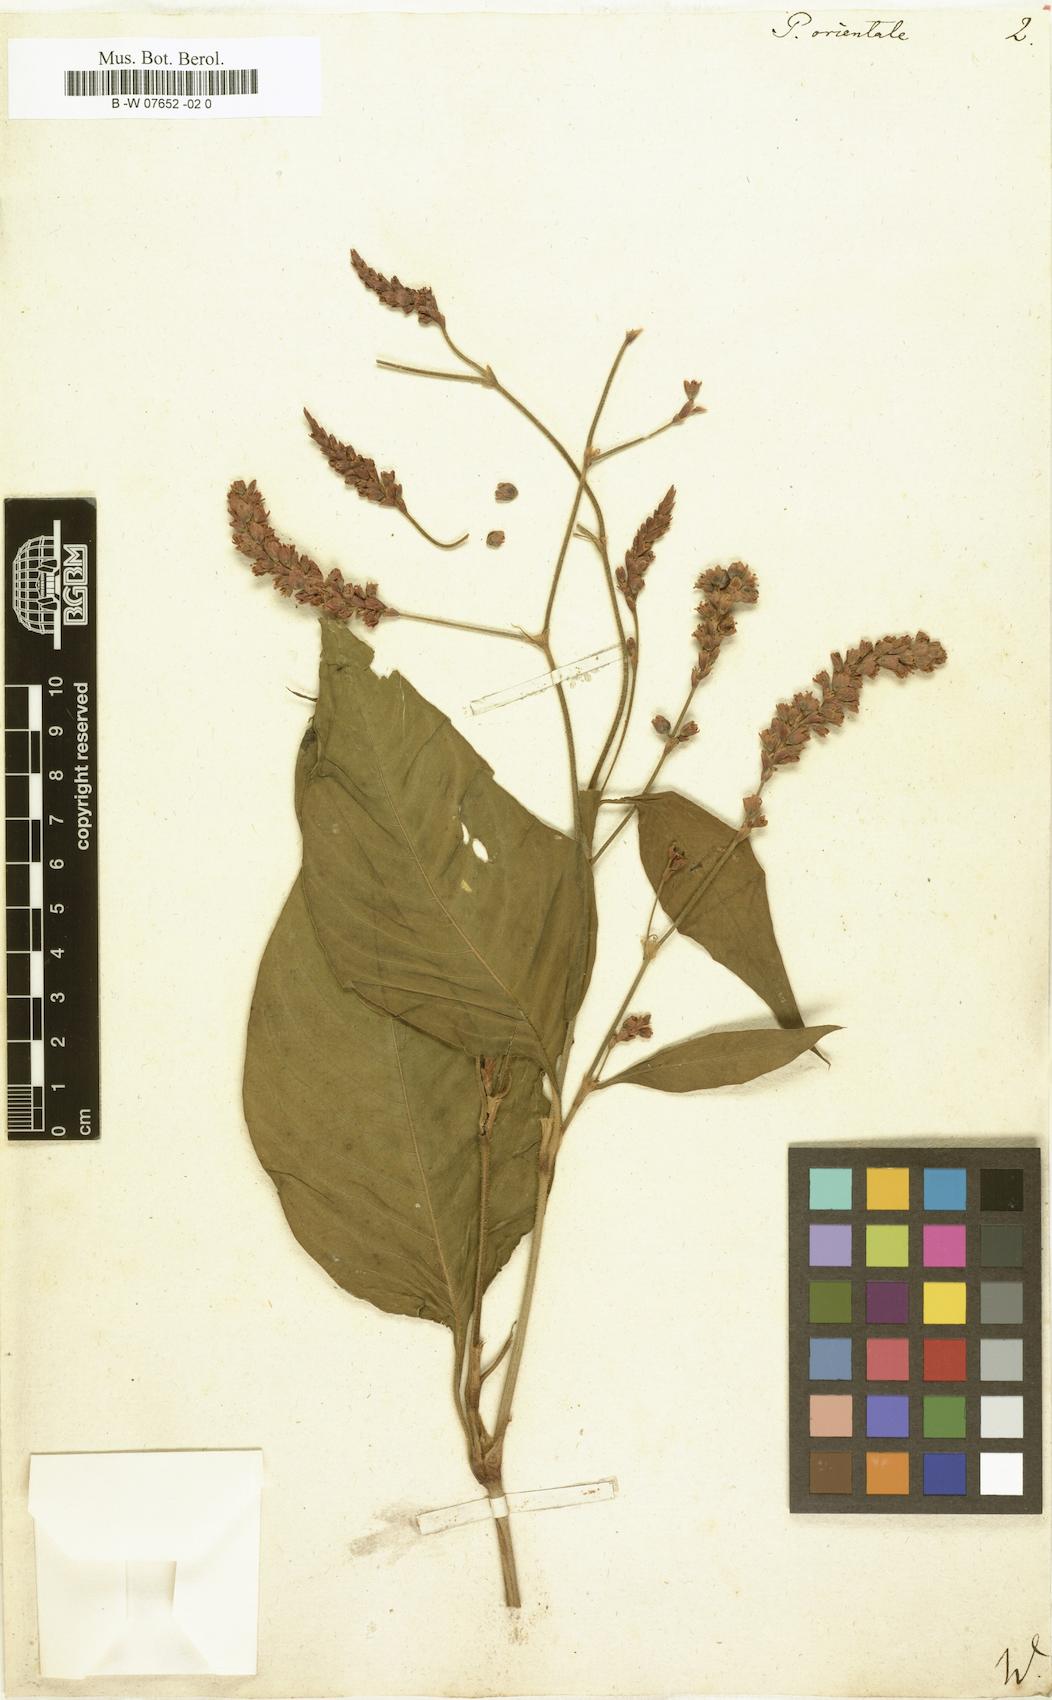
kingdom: Plantae
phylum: Tracheophyta
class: Magnoliopsida
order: Caryophyllales
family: Polygonaceae
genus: Persicaria
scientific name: Persicaria orientalis
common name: Kiss-me-over-the-garden-gate
